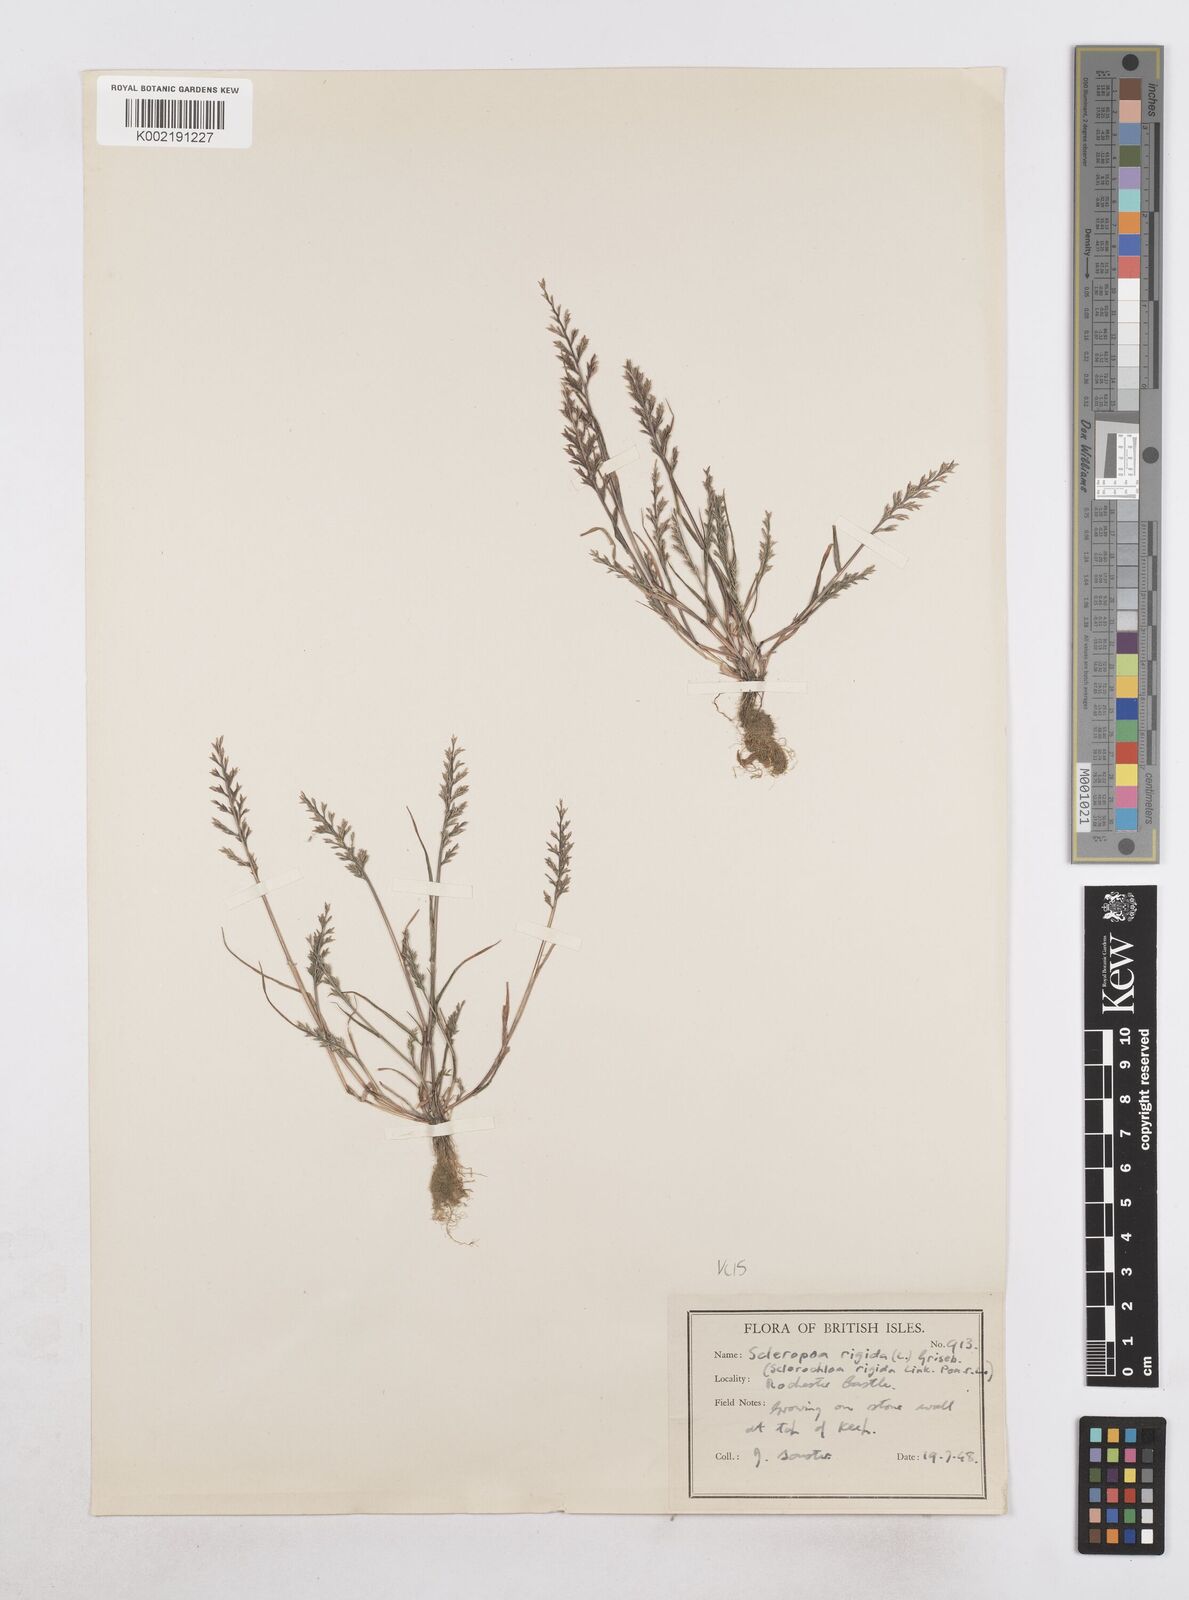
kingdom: Plantae
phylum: Tracheophyta
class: Liliopsida
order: Poales
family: Poaceae
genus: Catapodium
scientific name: Catapodium rigidum
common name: Fern-grass
